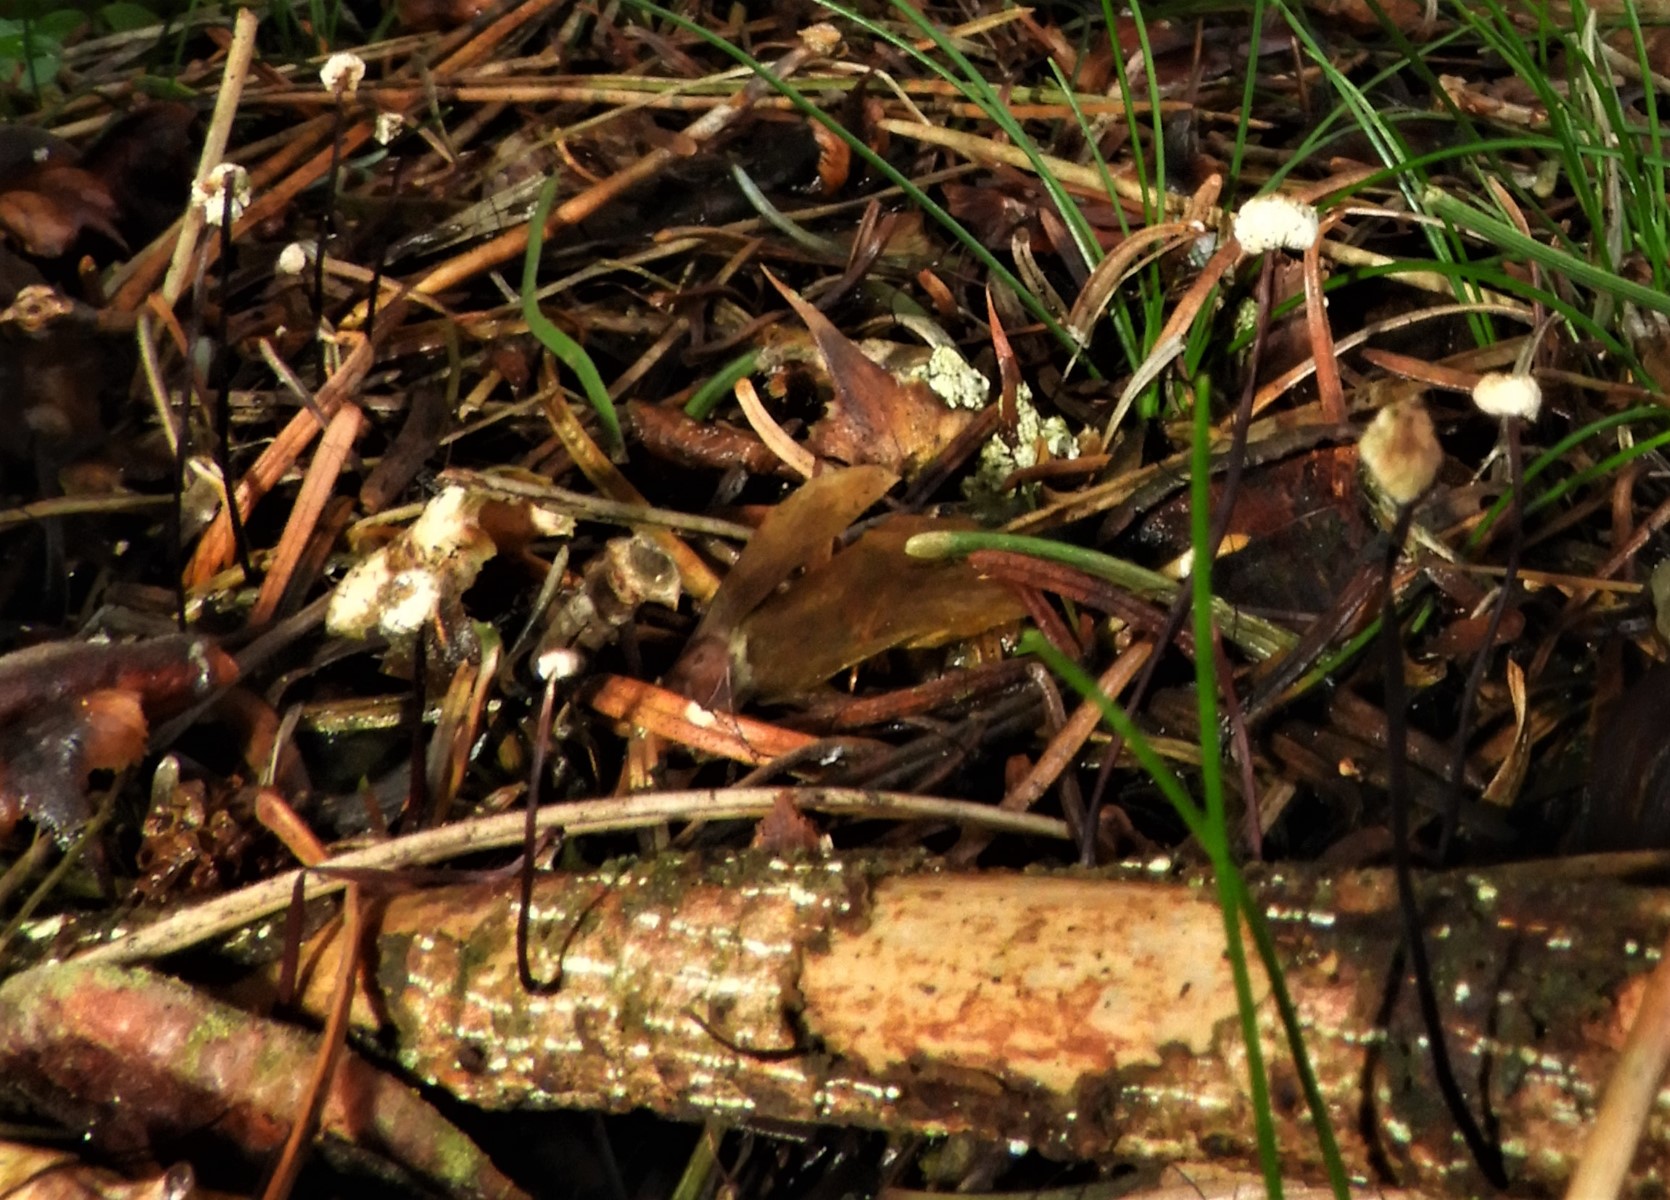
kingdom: Fungi
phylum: Basidiomycota
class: Agaricomycetes
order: Agaricales
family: Omphalotaceae
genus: Gymnopus
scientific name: Gymnopus androsaceus
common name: trådstokket fladhat
